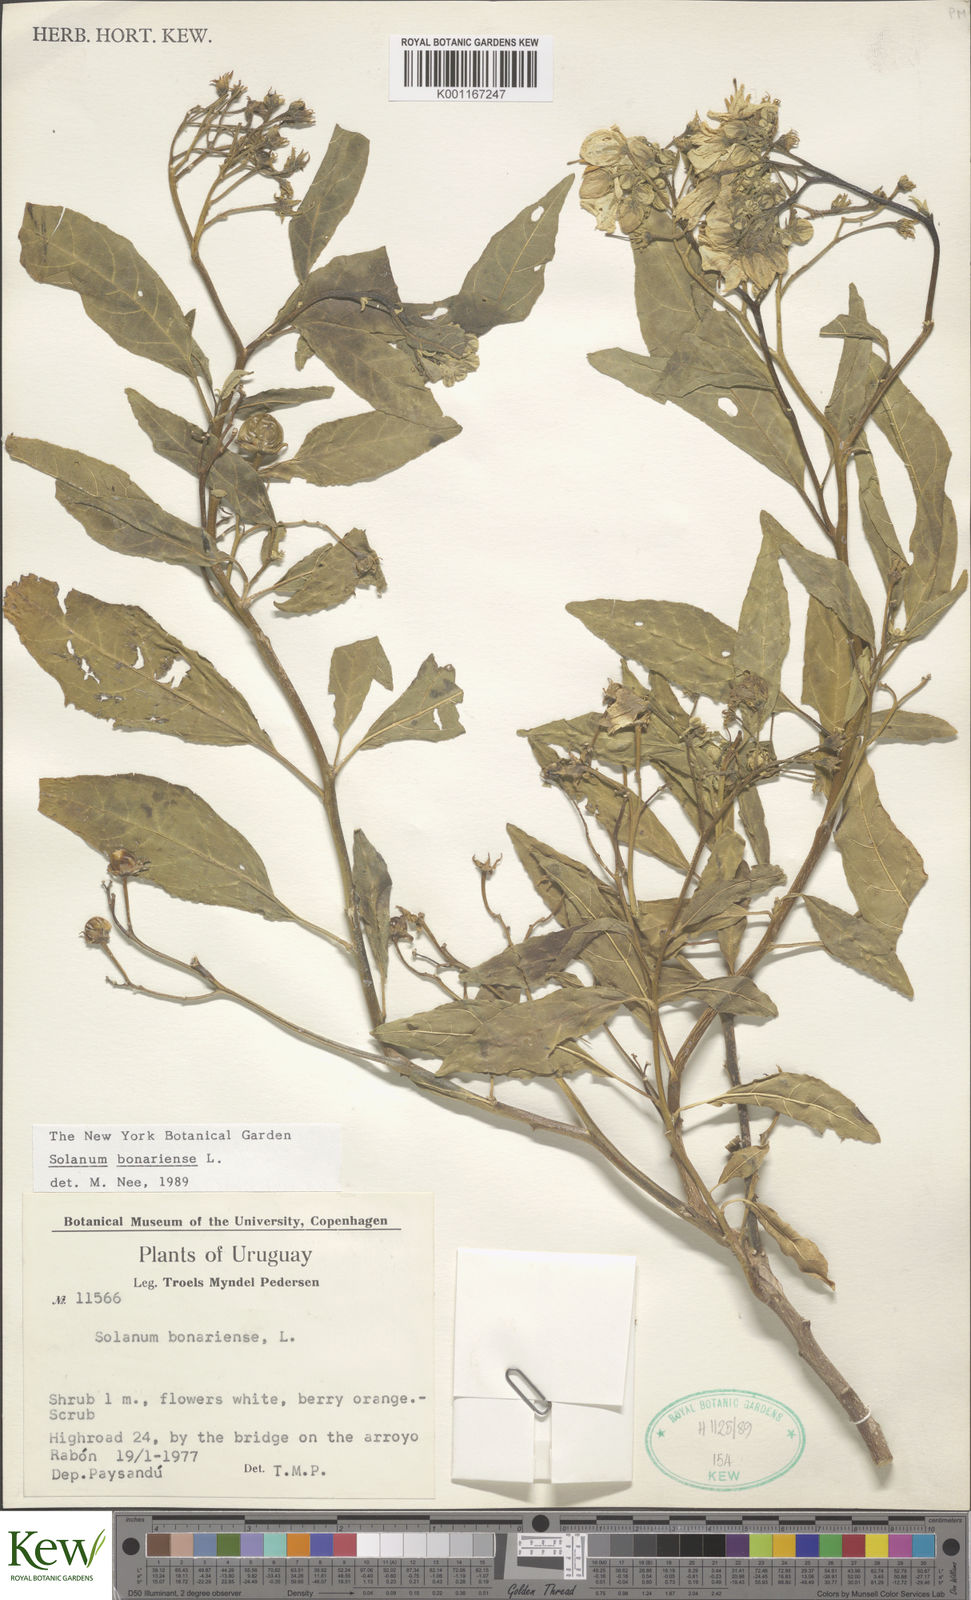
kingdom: Plantae
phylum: Tracheophyta
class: Magnoliopsida
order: Solanales
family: Solanaceae
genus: Solanum
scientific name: Solanum bonariense
